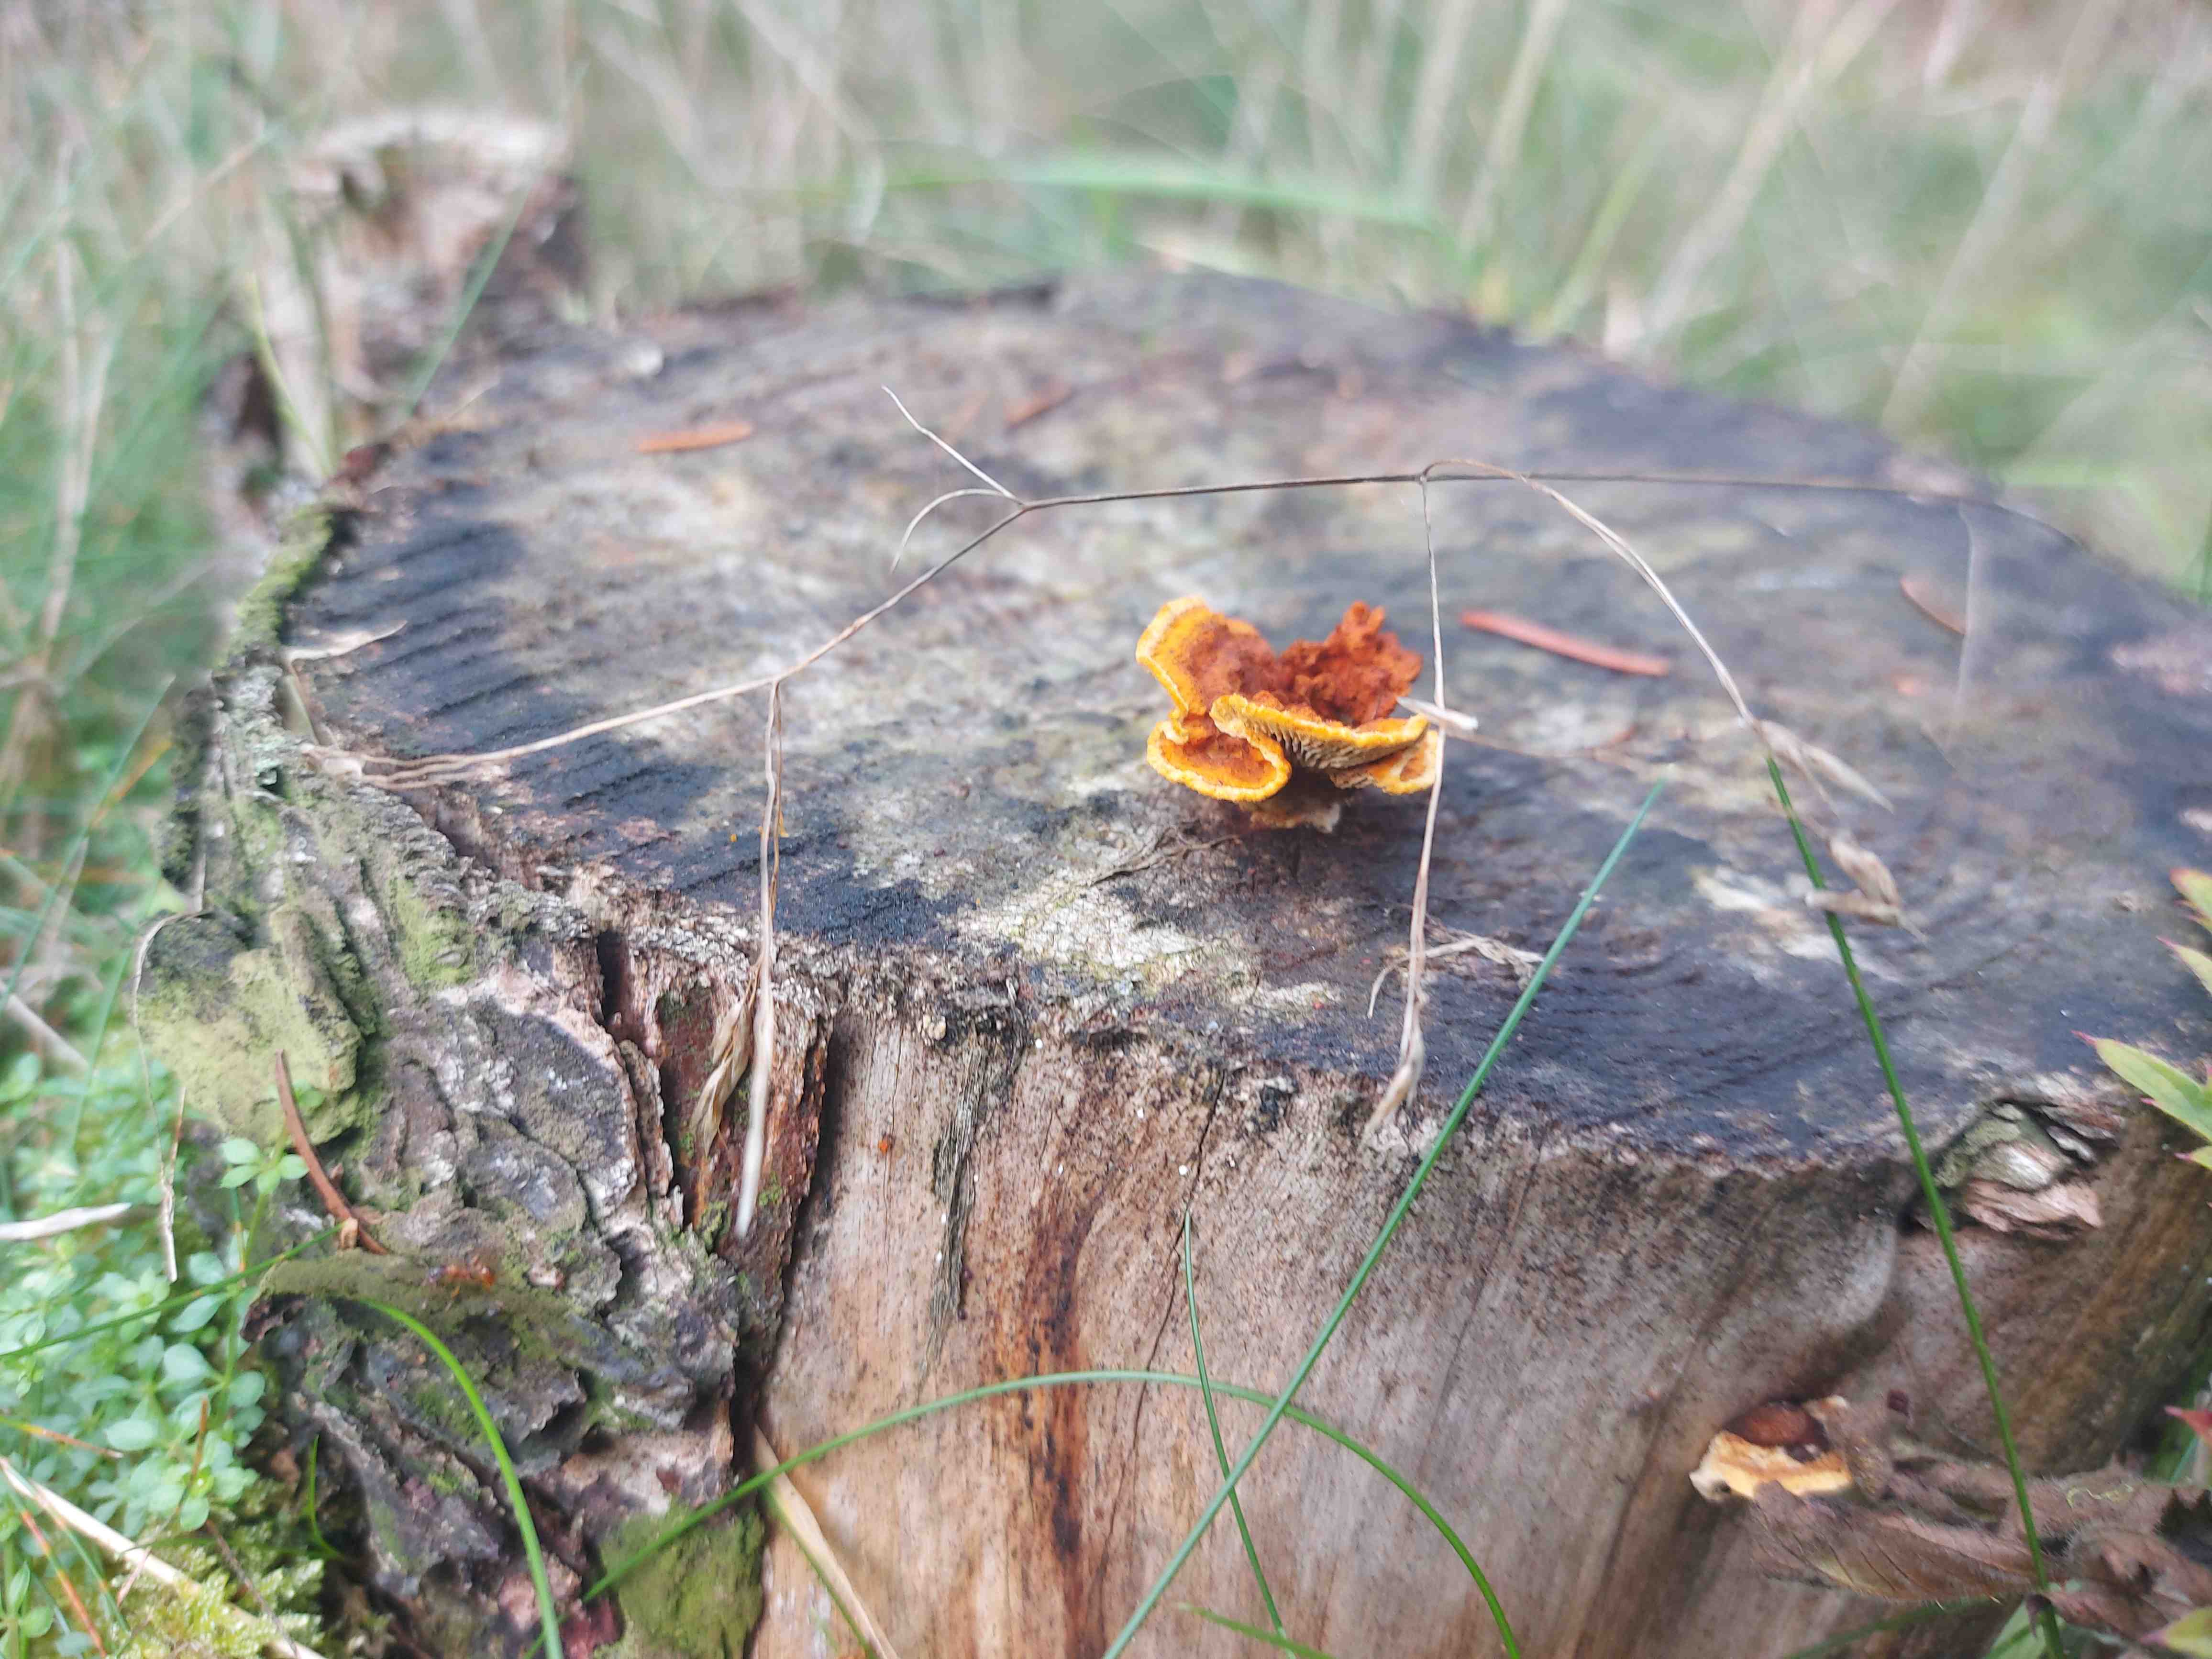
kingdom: Fungi
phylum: Basidiomycota
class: Agaricomycetes
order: Gloeophyllales
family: Gloeophyllaceae
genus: Gloeophyllum
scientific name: Gloeophyllum sepiarium
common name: fyrre-korkhat
